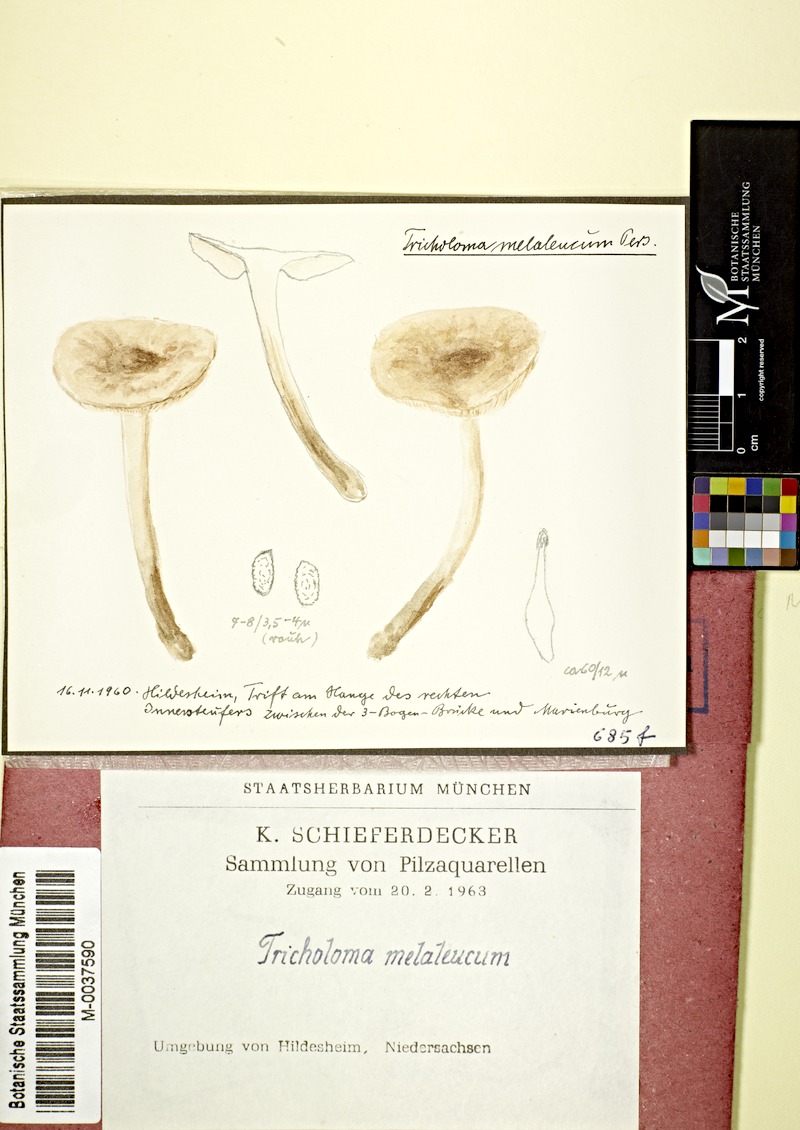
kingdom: Fungi
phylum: Basidiomycota
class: Agaricomycetes
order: Agaricales
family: Tricholomataceae
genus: Melanoleuca
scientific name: Melanoleuca melaleuca
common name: Bald cavalier
